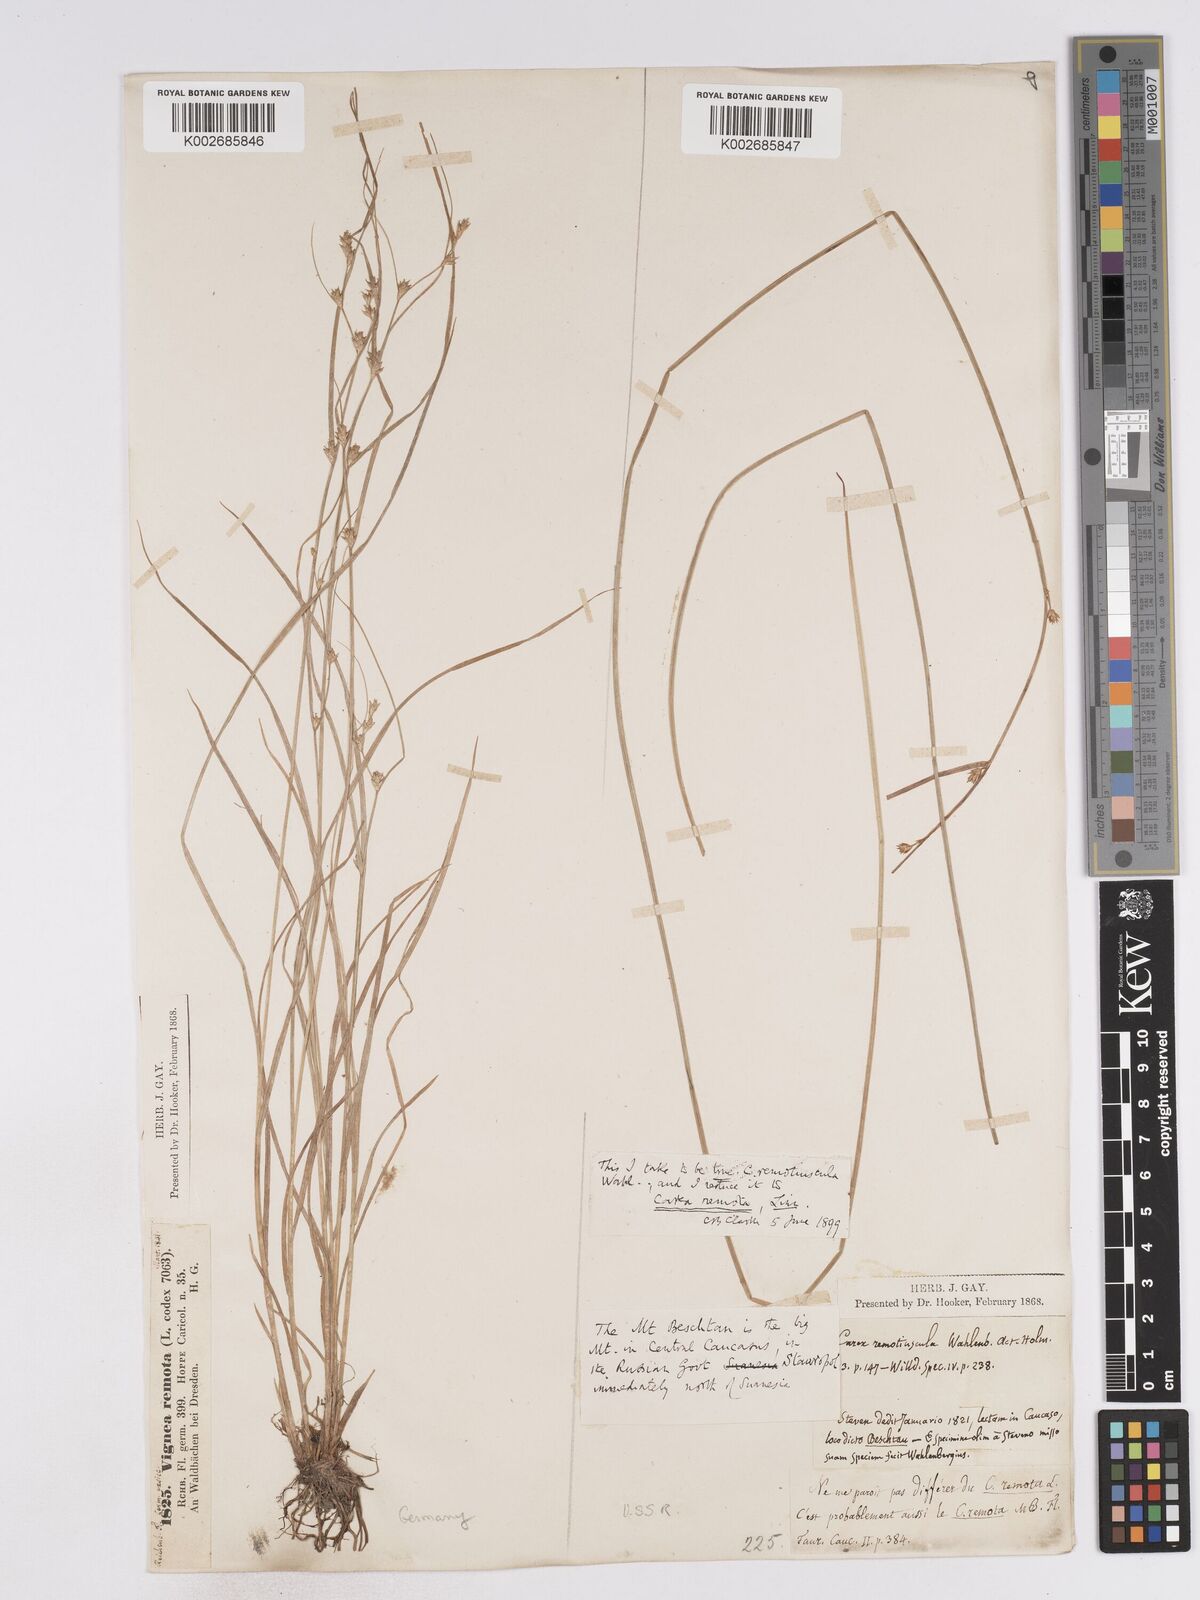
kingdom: Plantae
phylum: Tracheophyta
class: Liliopsida
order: Poales
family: Cyperaceae
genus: Carex
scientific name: Carex remotiuscula
